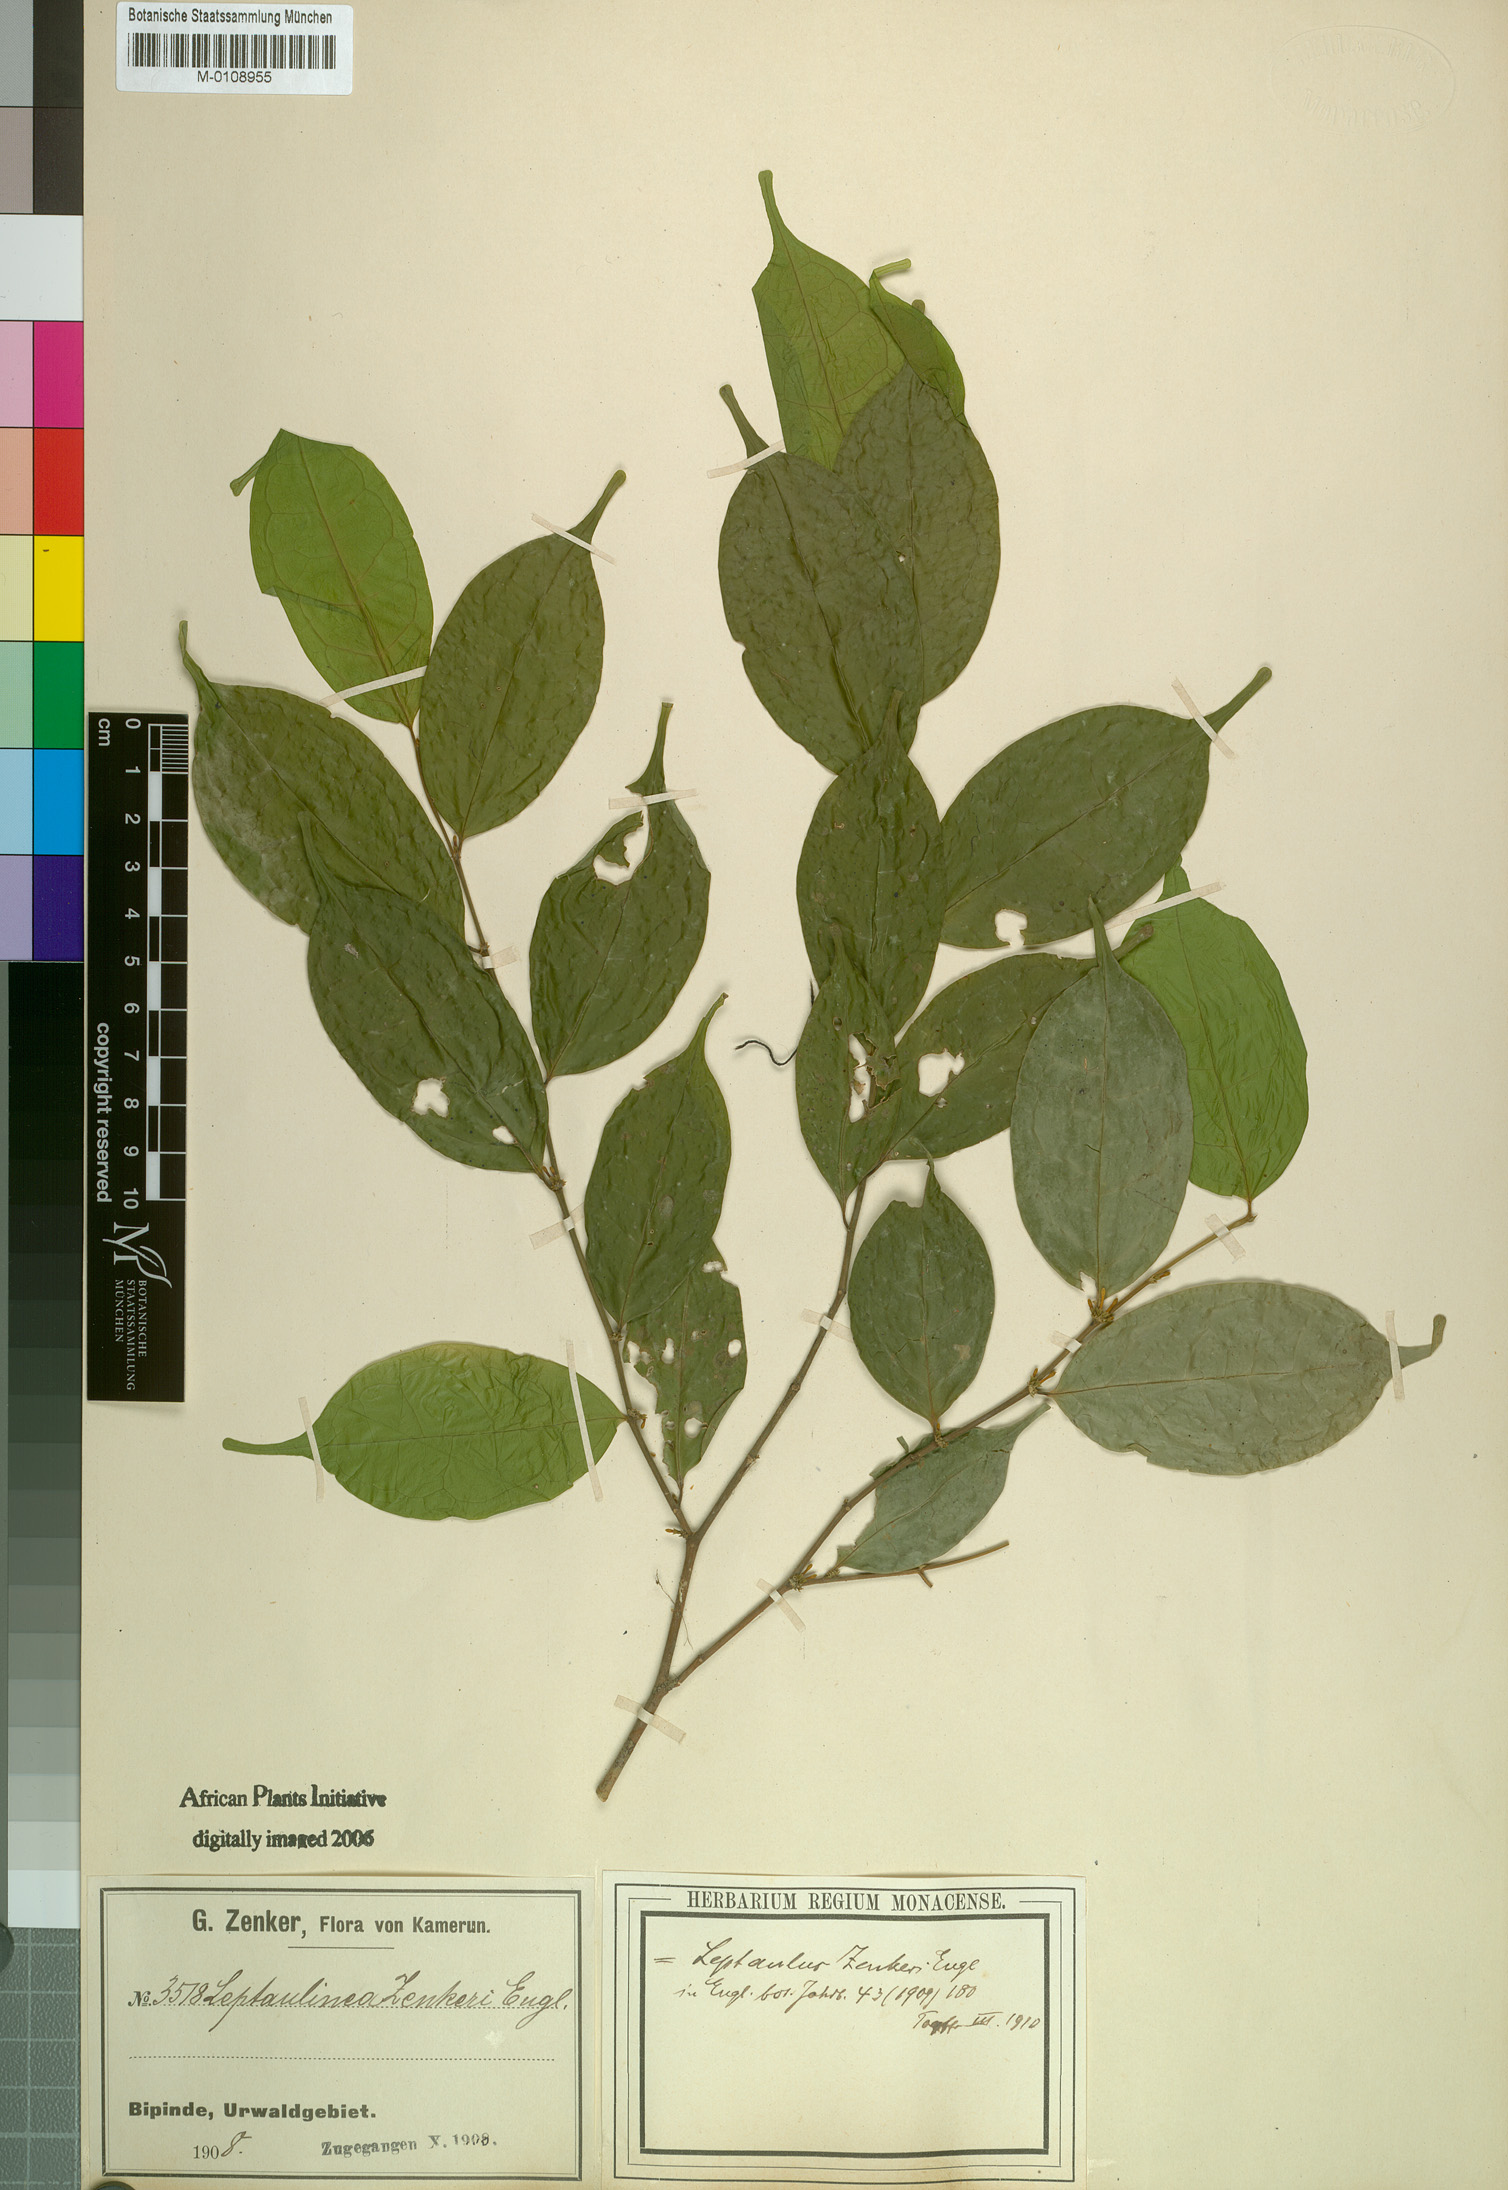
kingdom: Plantae
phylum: Tracheophyta
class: Magnoliopsida
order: Cardiopteridales
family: Cardiopteridaceae
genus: Leptaulus
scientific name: Leptaulus congolanus
